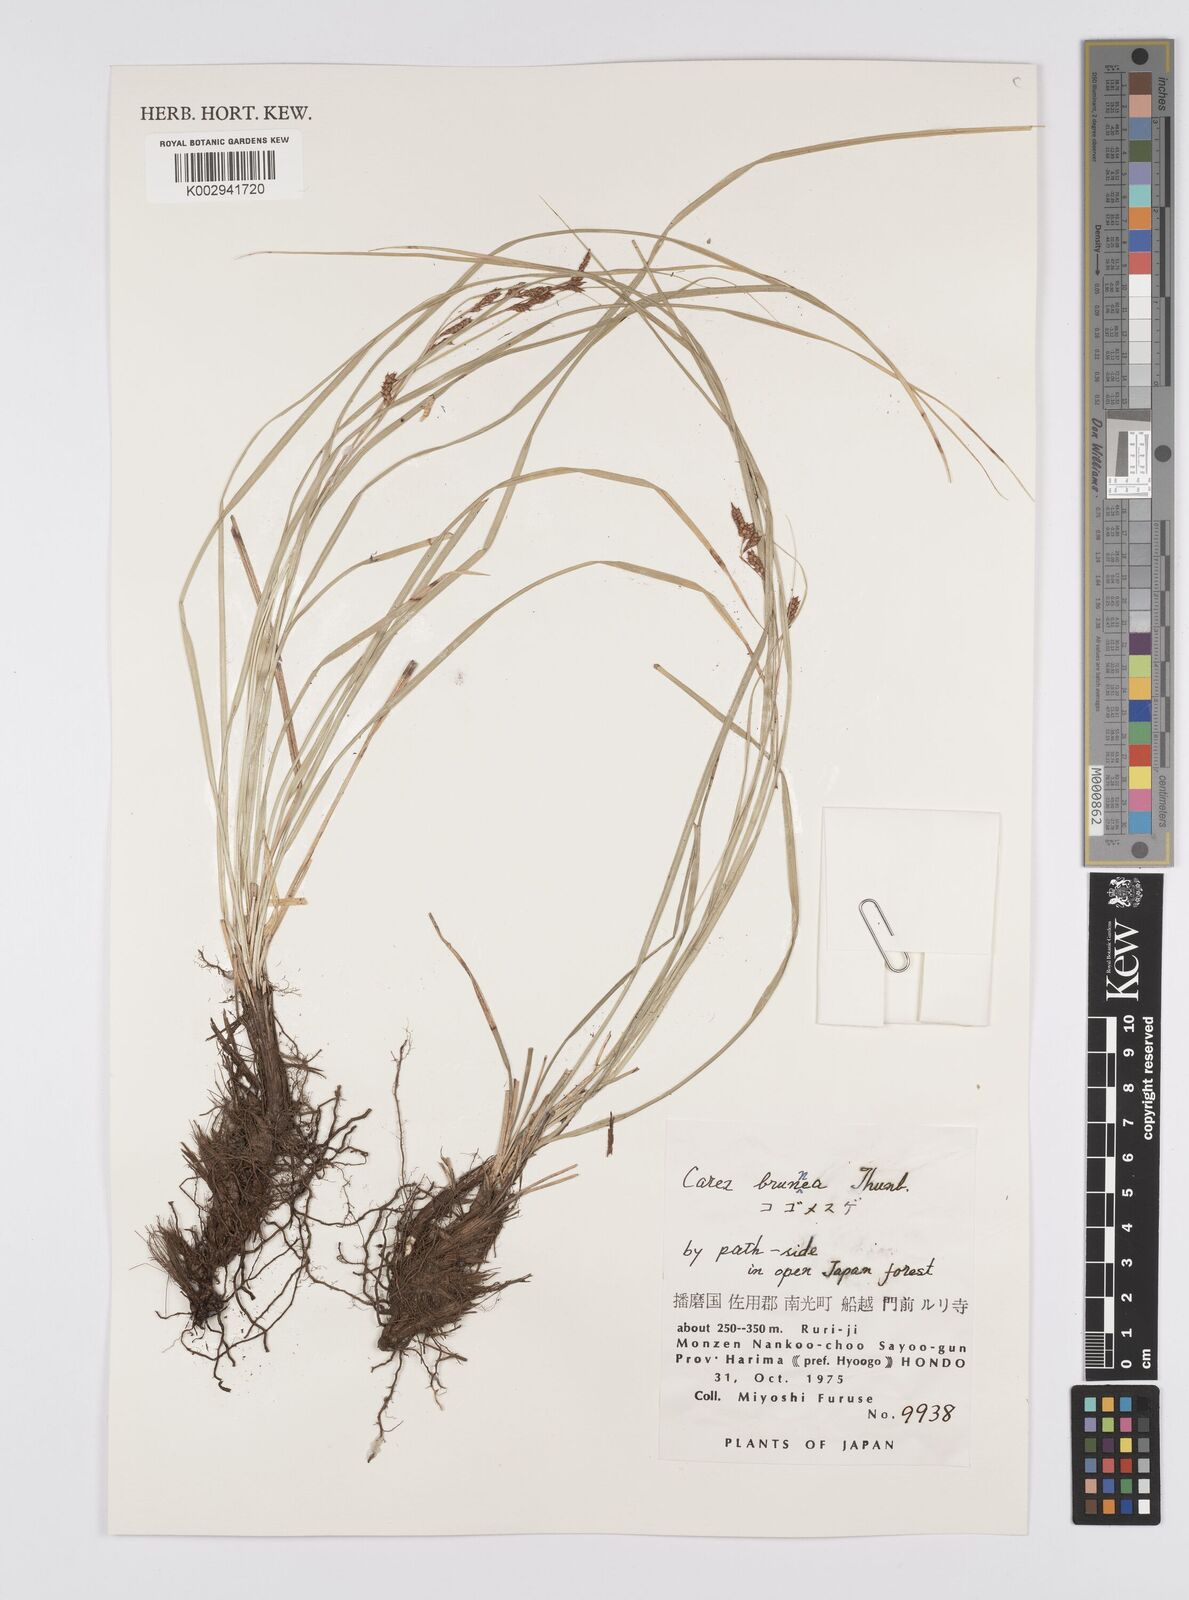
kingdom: Plantae
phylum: Tracheophyta
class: Liliopsida
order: Poales
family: Cyperaceae
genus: Carex
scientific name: Carex brunnea
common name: Greater brown sedge
